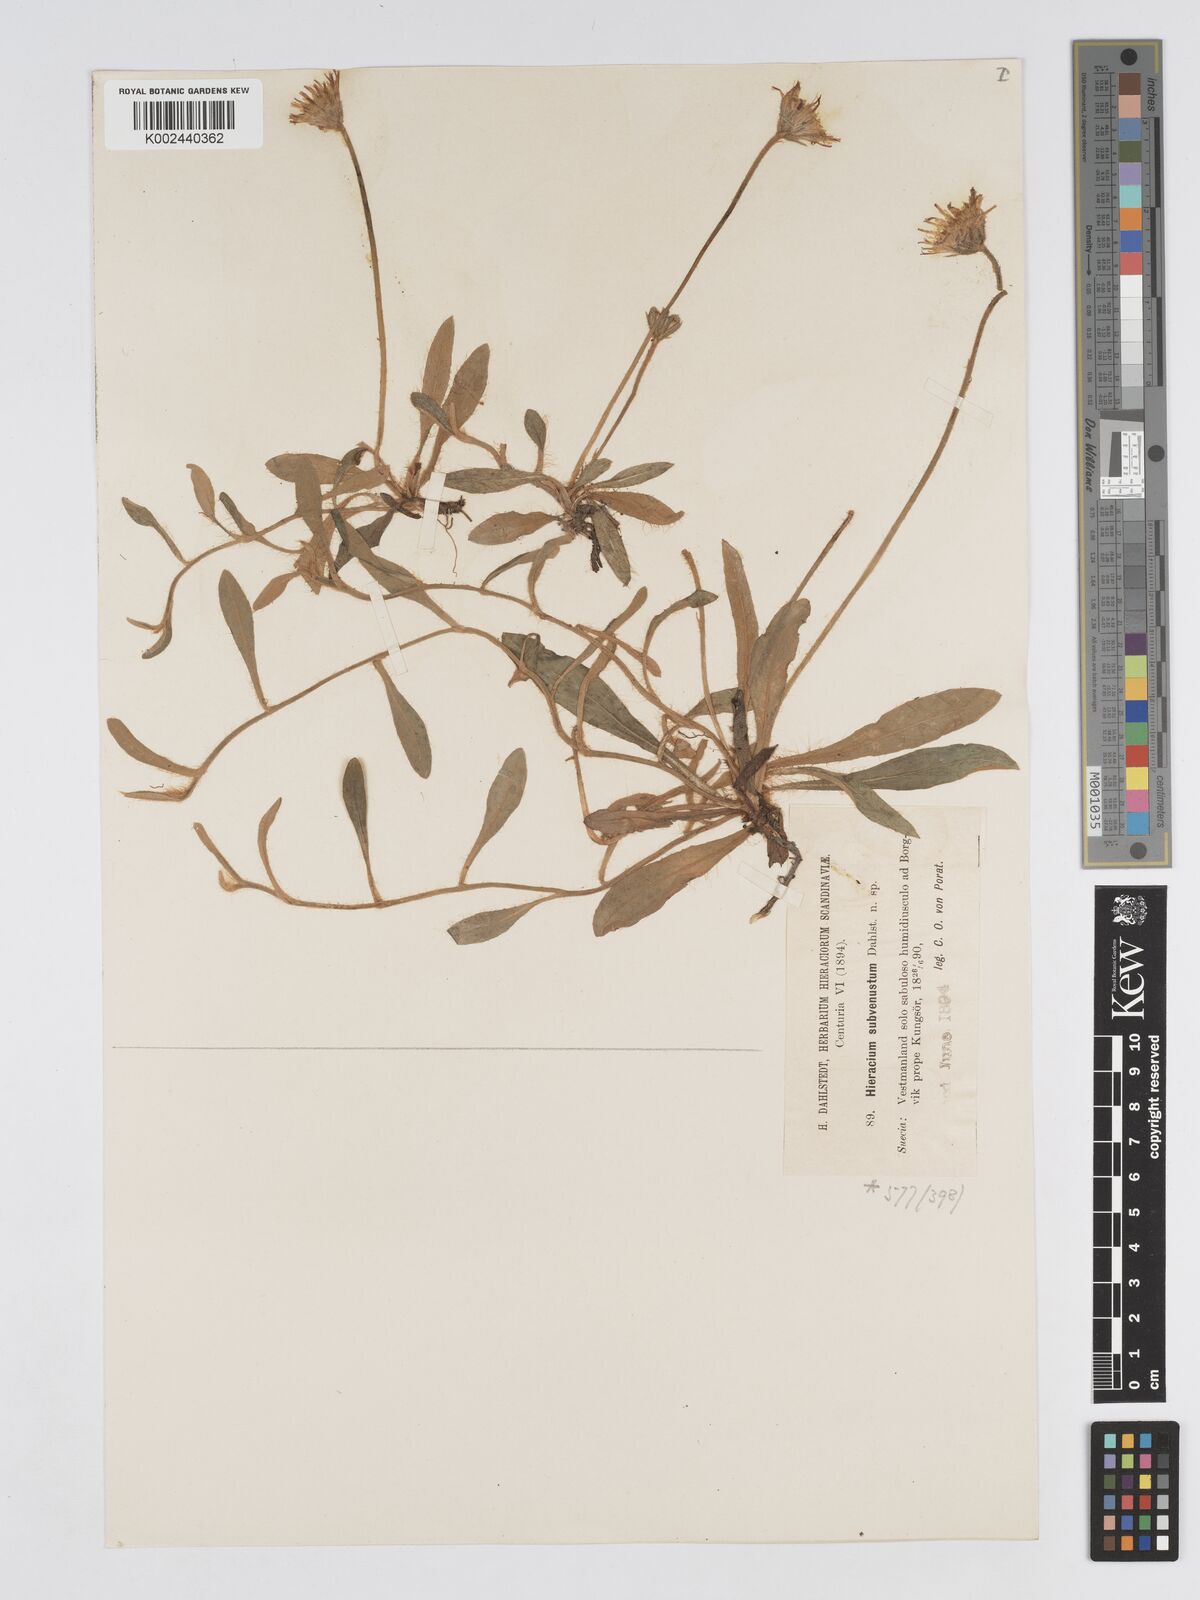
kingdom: Plantae
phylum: Tracheophyta
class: Magnoliopsida
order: Asterales
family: Asteraceae
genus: Pilosella
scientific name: Pilosella officinarum
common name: Mouse-ear hawkweed
